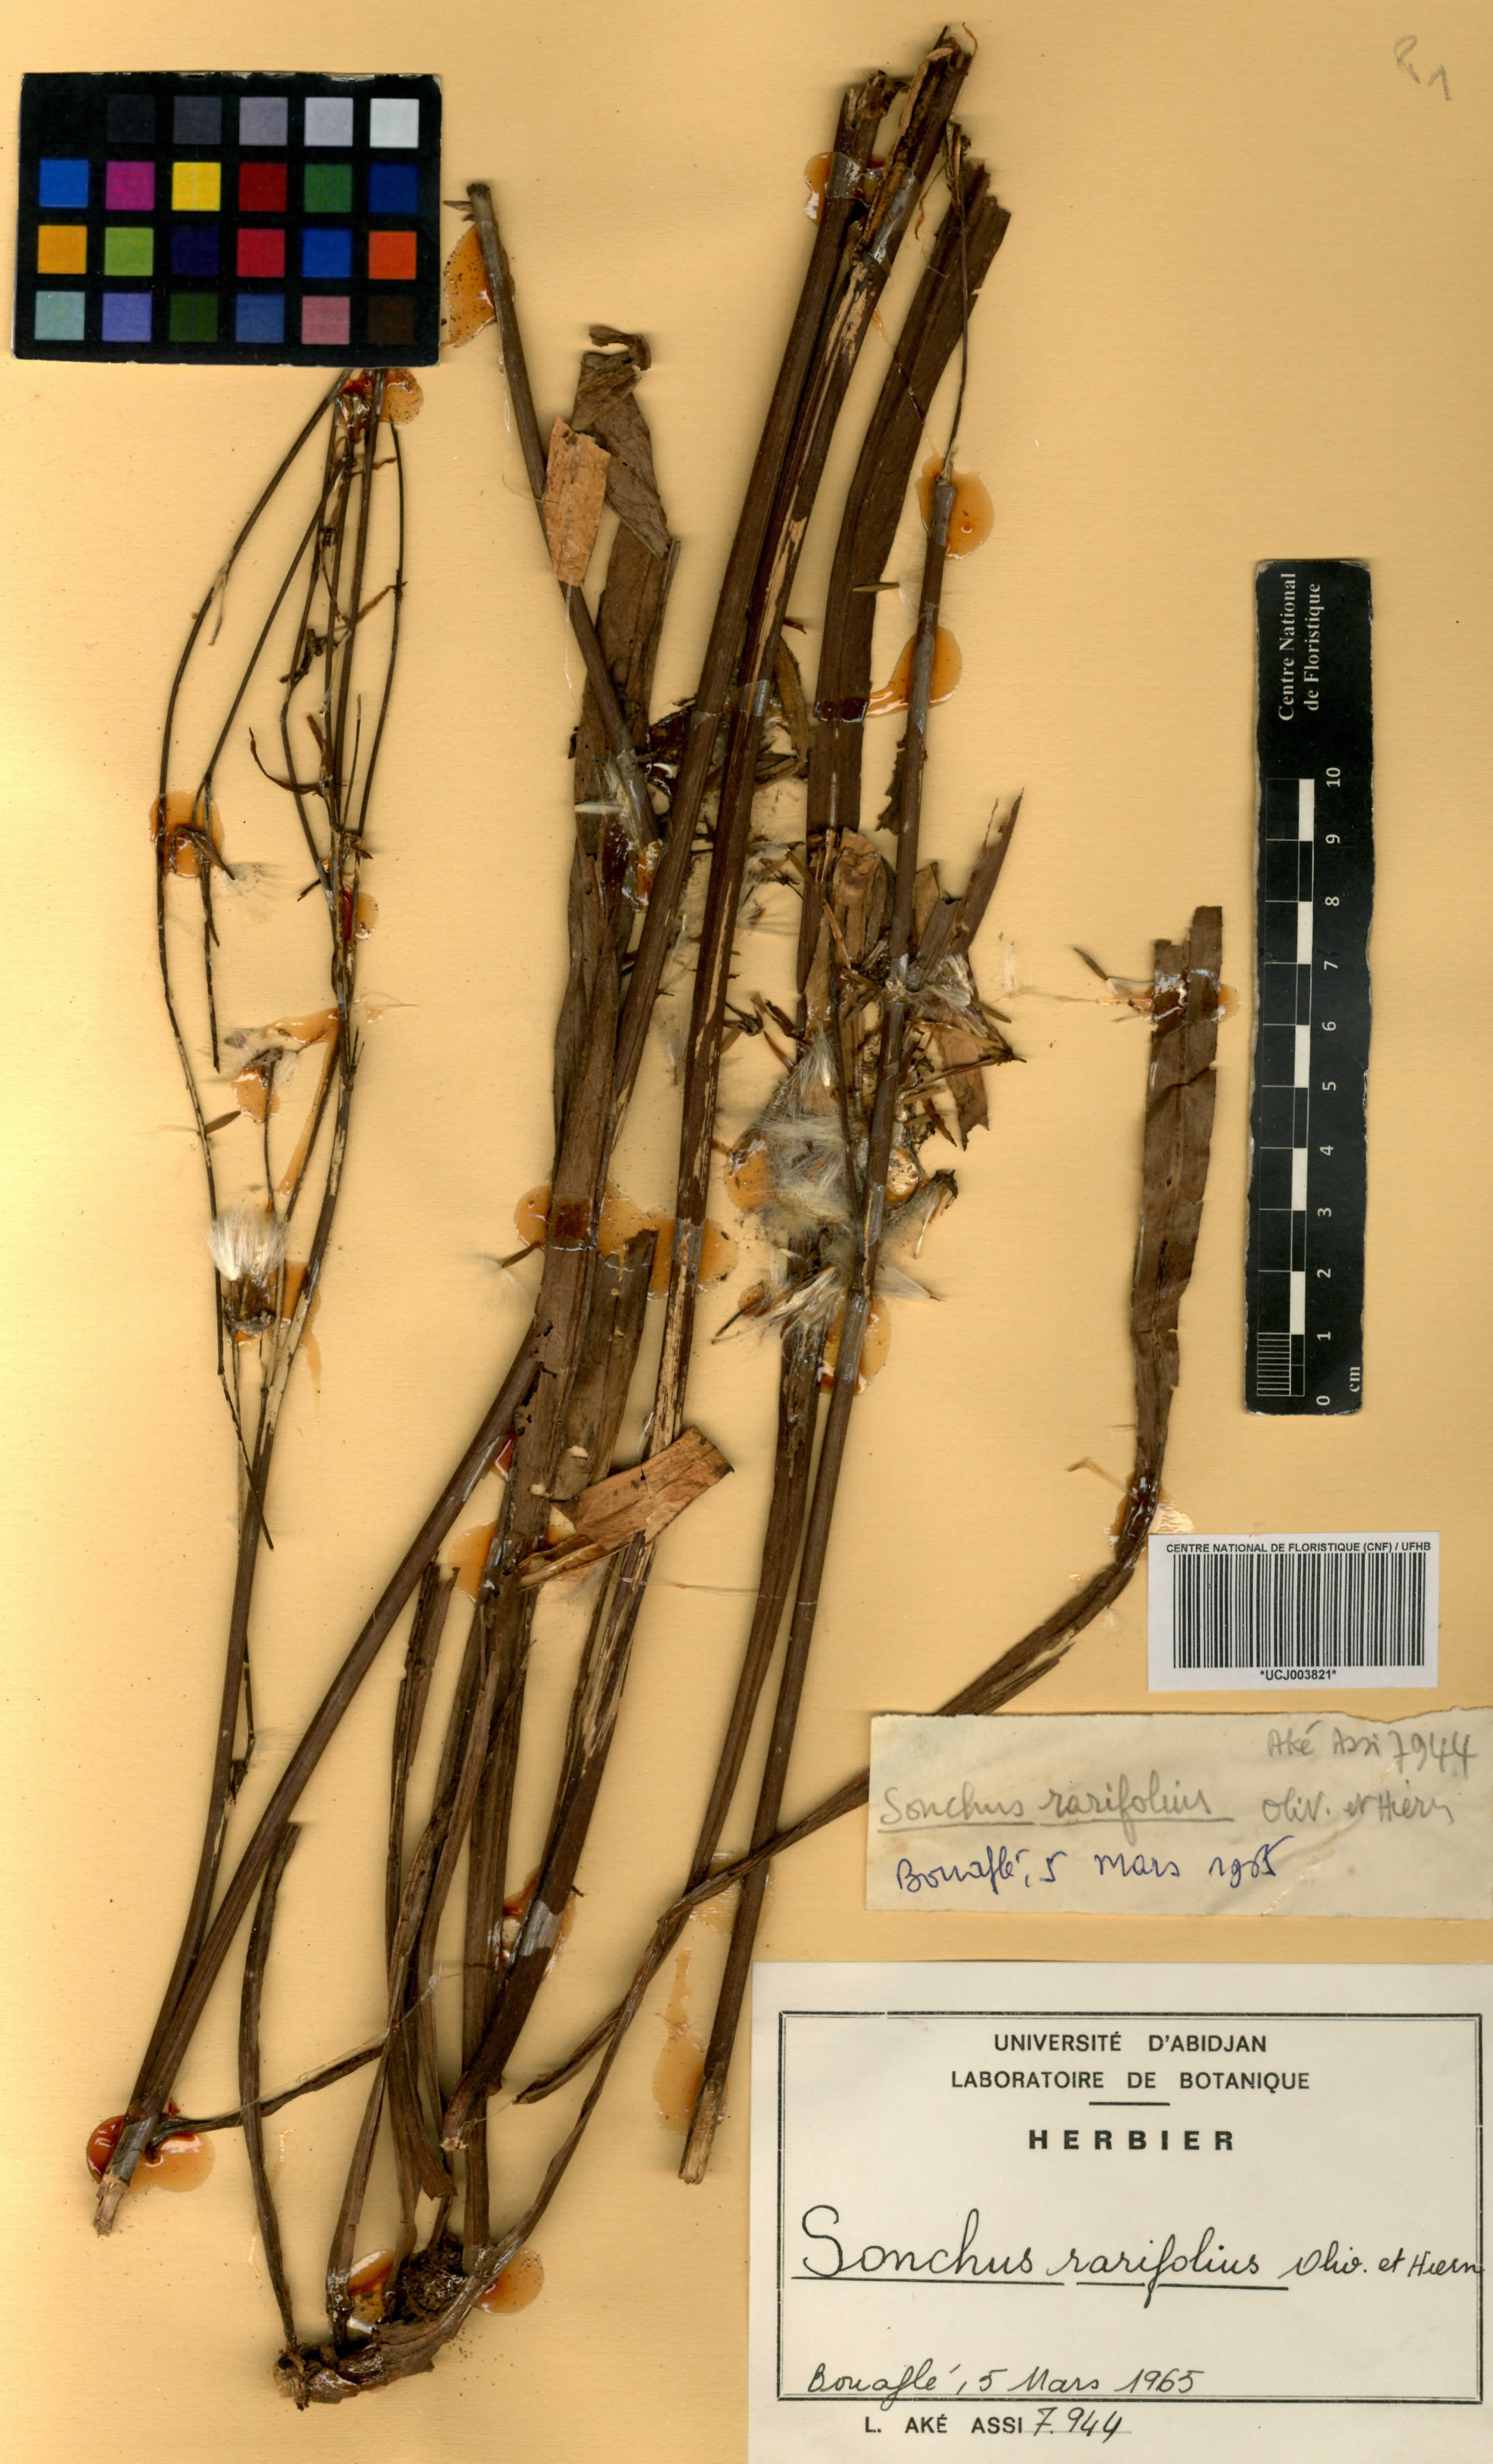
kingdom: Plantae
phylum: Tracheophyta
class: Magnoliopsida
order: Asterales
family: Asteraceae
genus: Launaea
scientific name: Launaea rarifolia
